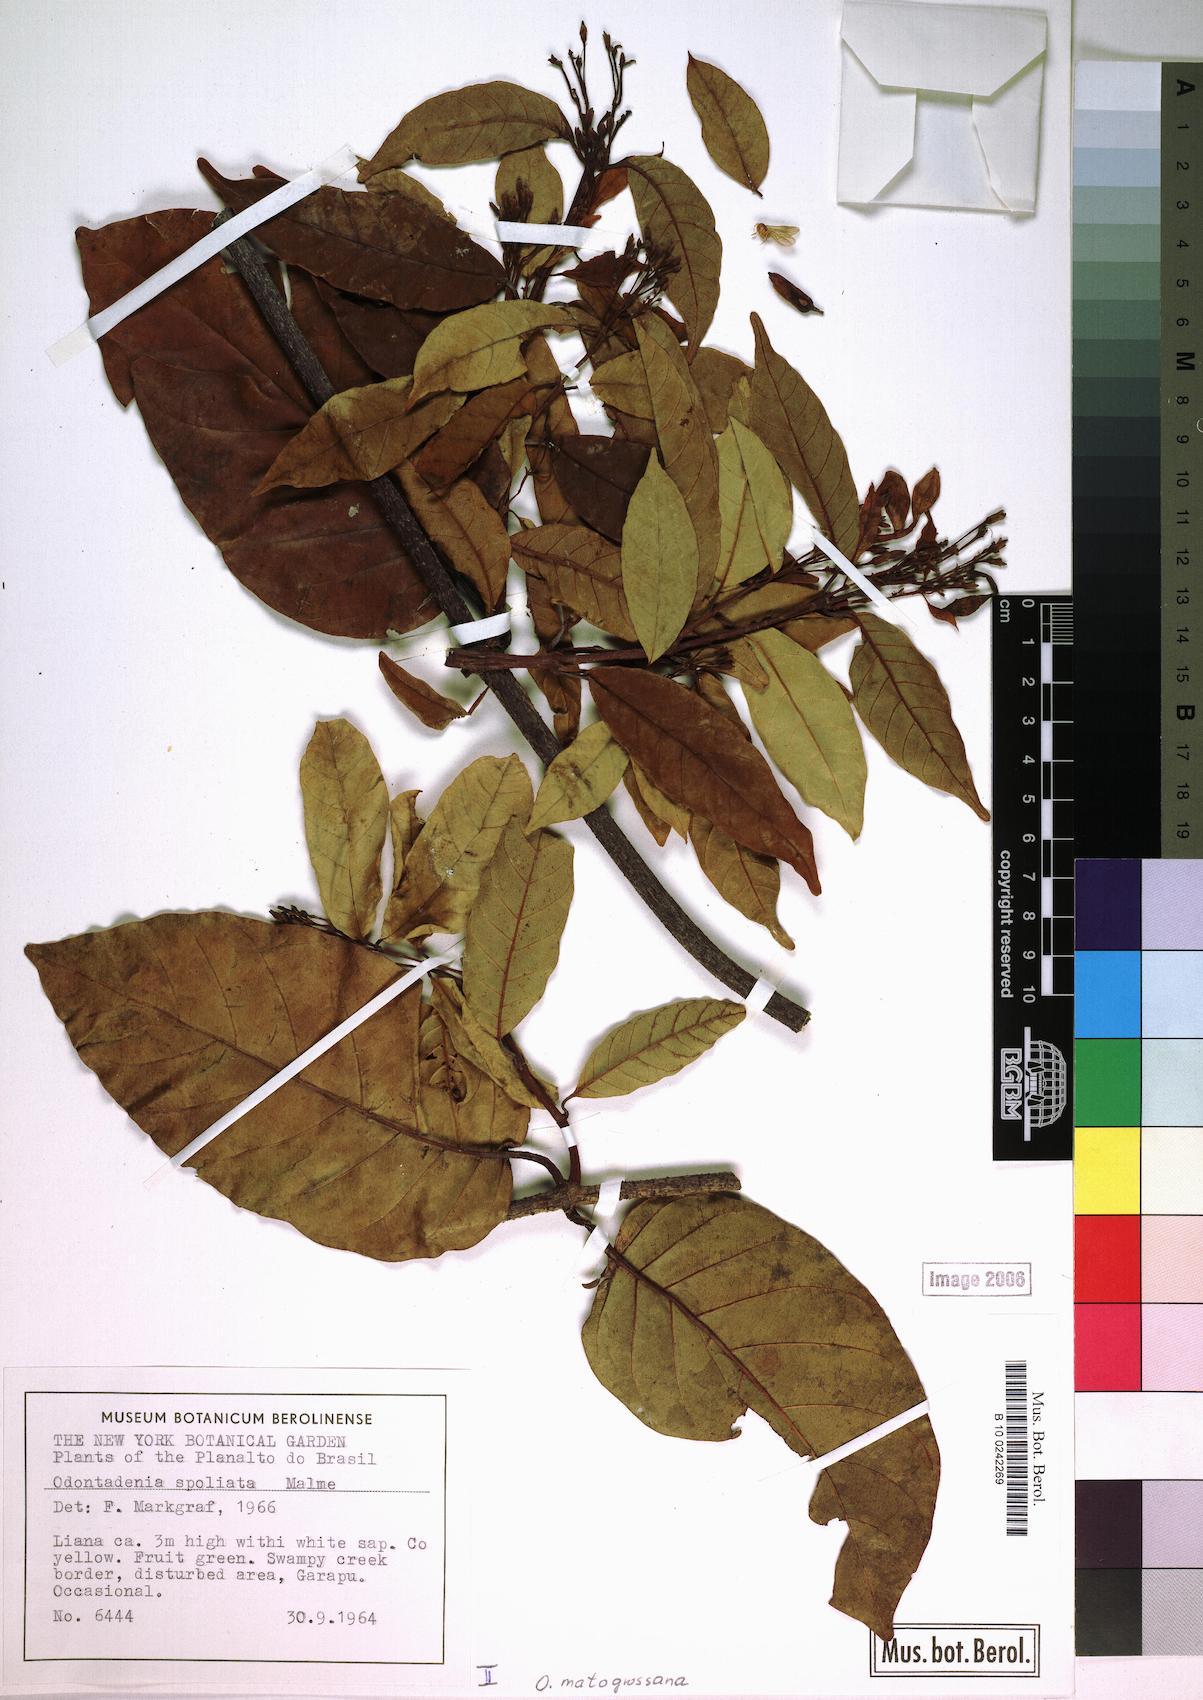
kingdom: Plantae
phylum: Tracheophyta
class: Magnoliopsida
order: Gentianales
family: Apocynaceae
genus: Odontadenia
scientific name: Odontadenia matogrossana
